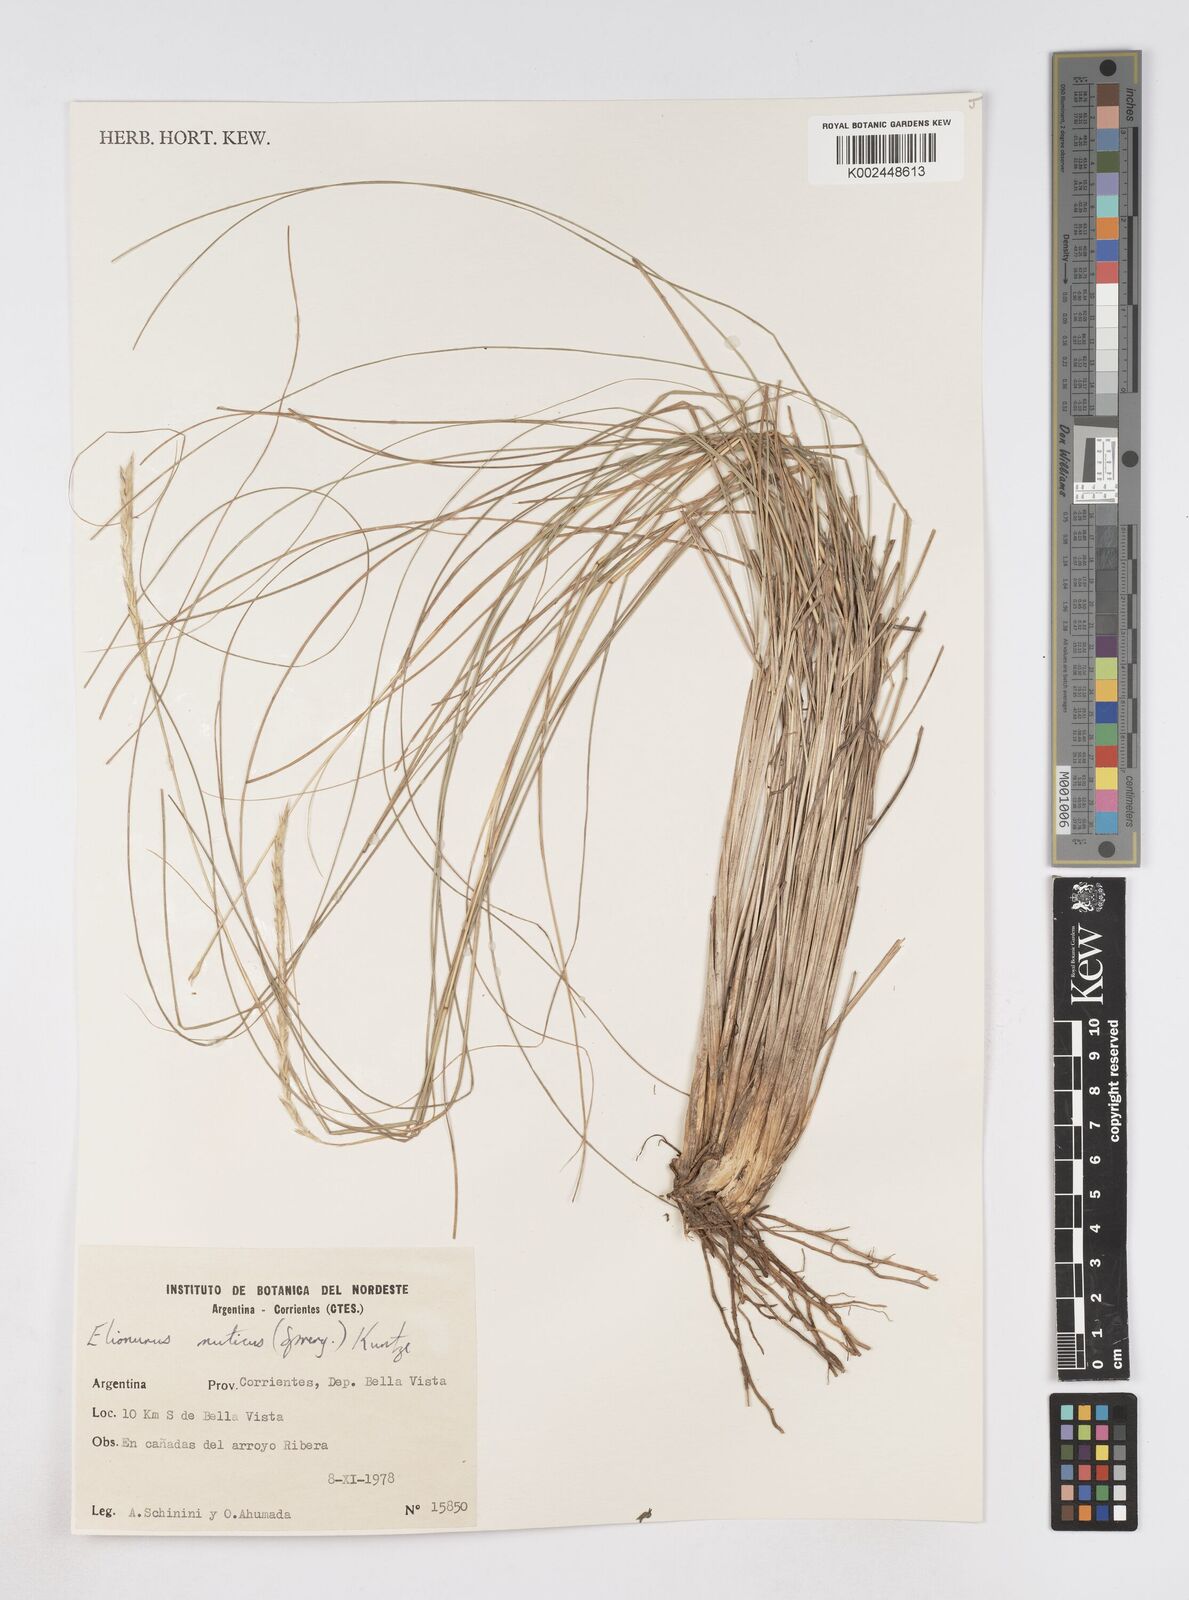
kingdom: Plantae
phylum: Tracheophyta
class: Liliopsida
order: Poales
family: Poaceae
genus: Elionurus
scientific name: Elionurus muticus
